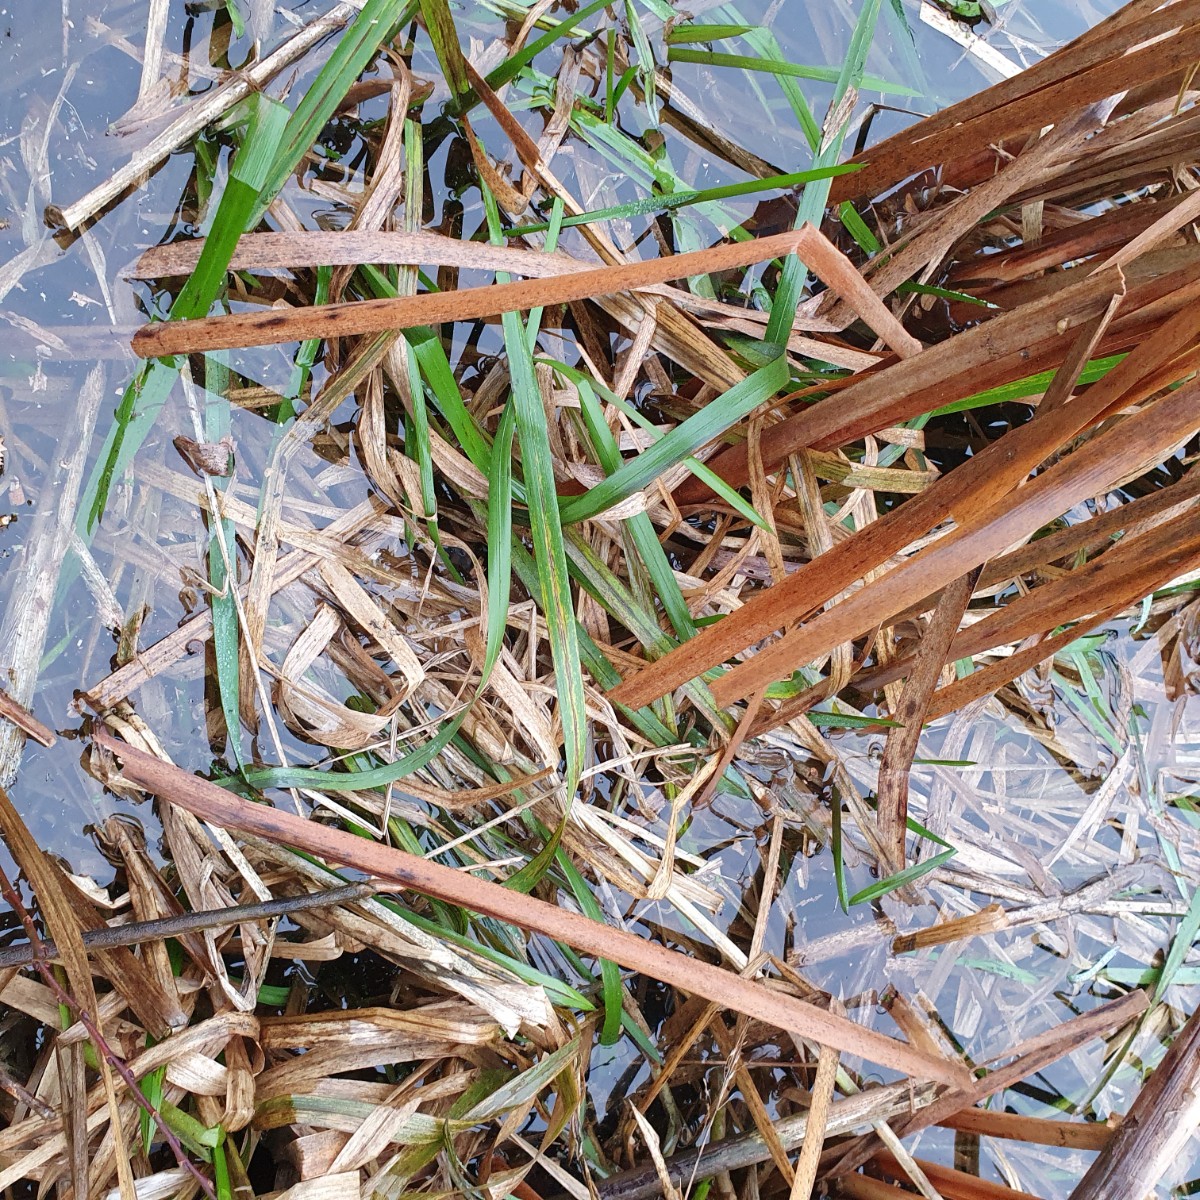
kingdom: Fungi
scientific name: Fungi
